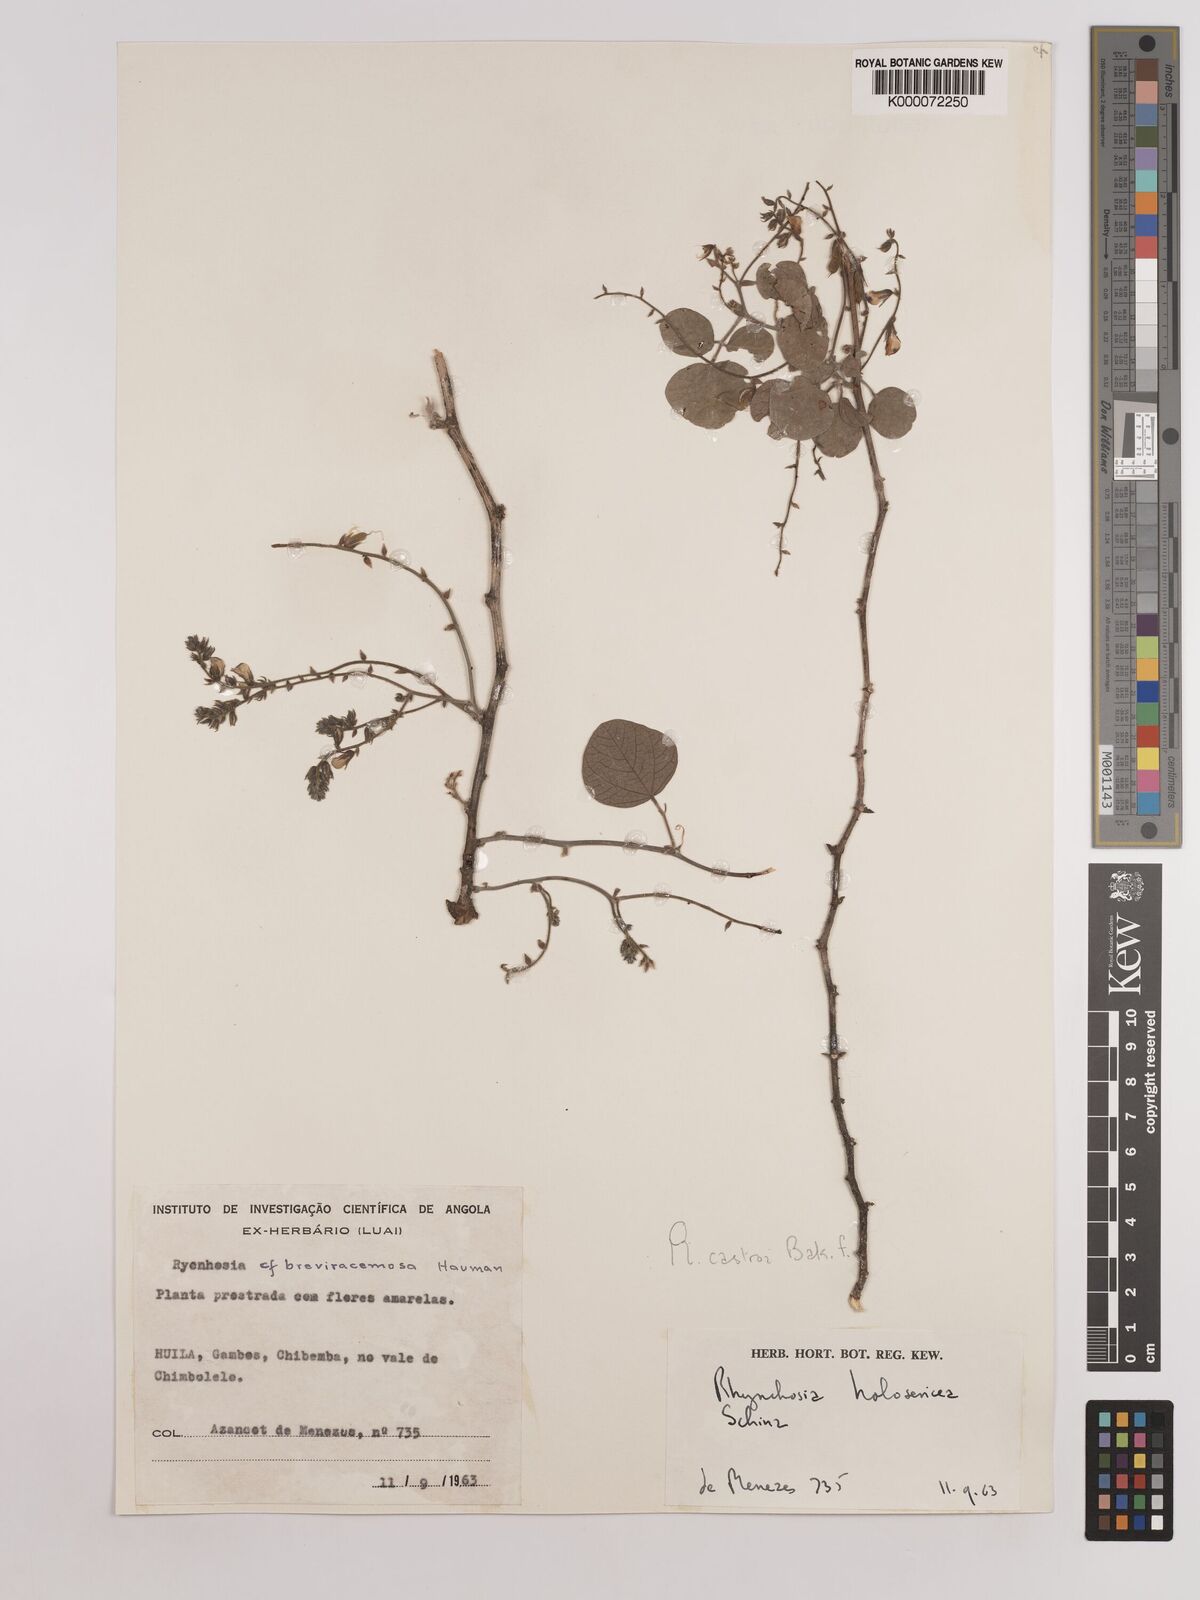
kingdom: Plantae
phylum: Tracheophyta
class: Magnoliopsida
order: Fabales
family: Fabaceae
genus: Rhynchosia
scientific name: Rhynchosia castroi
